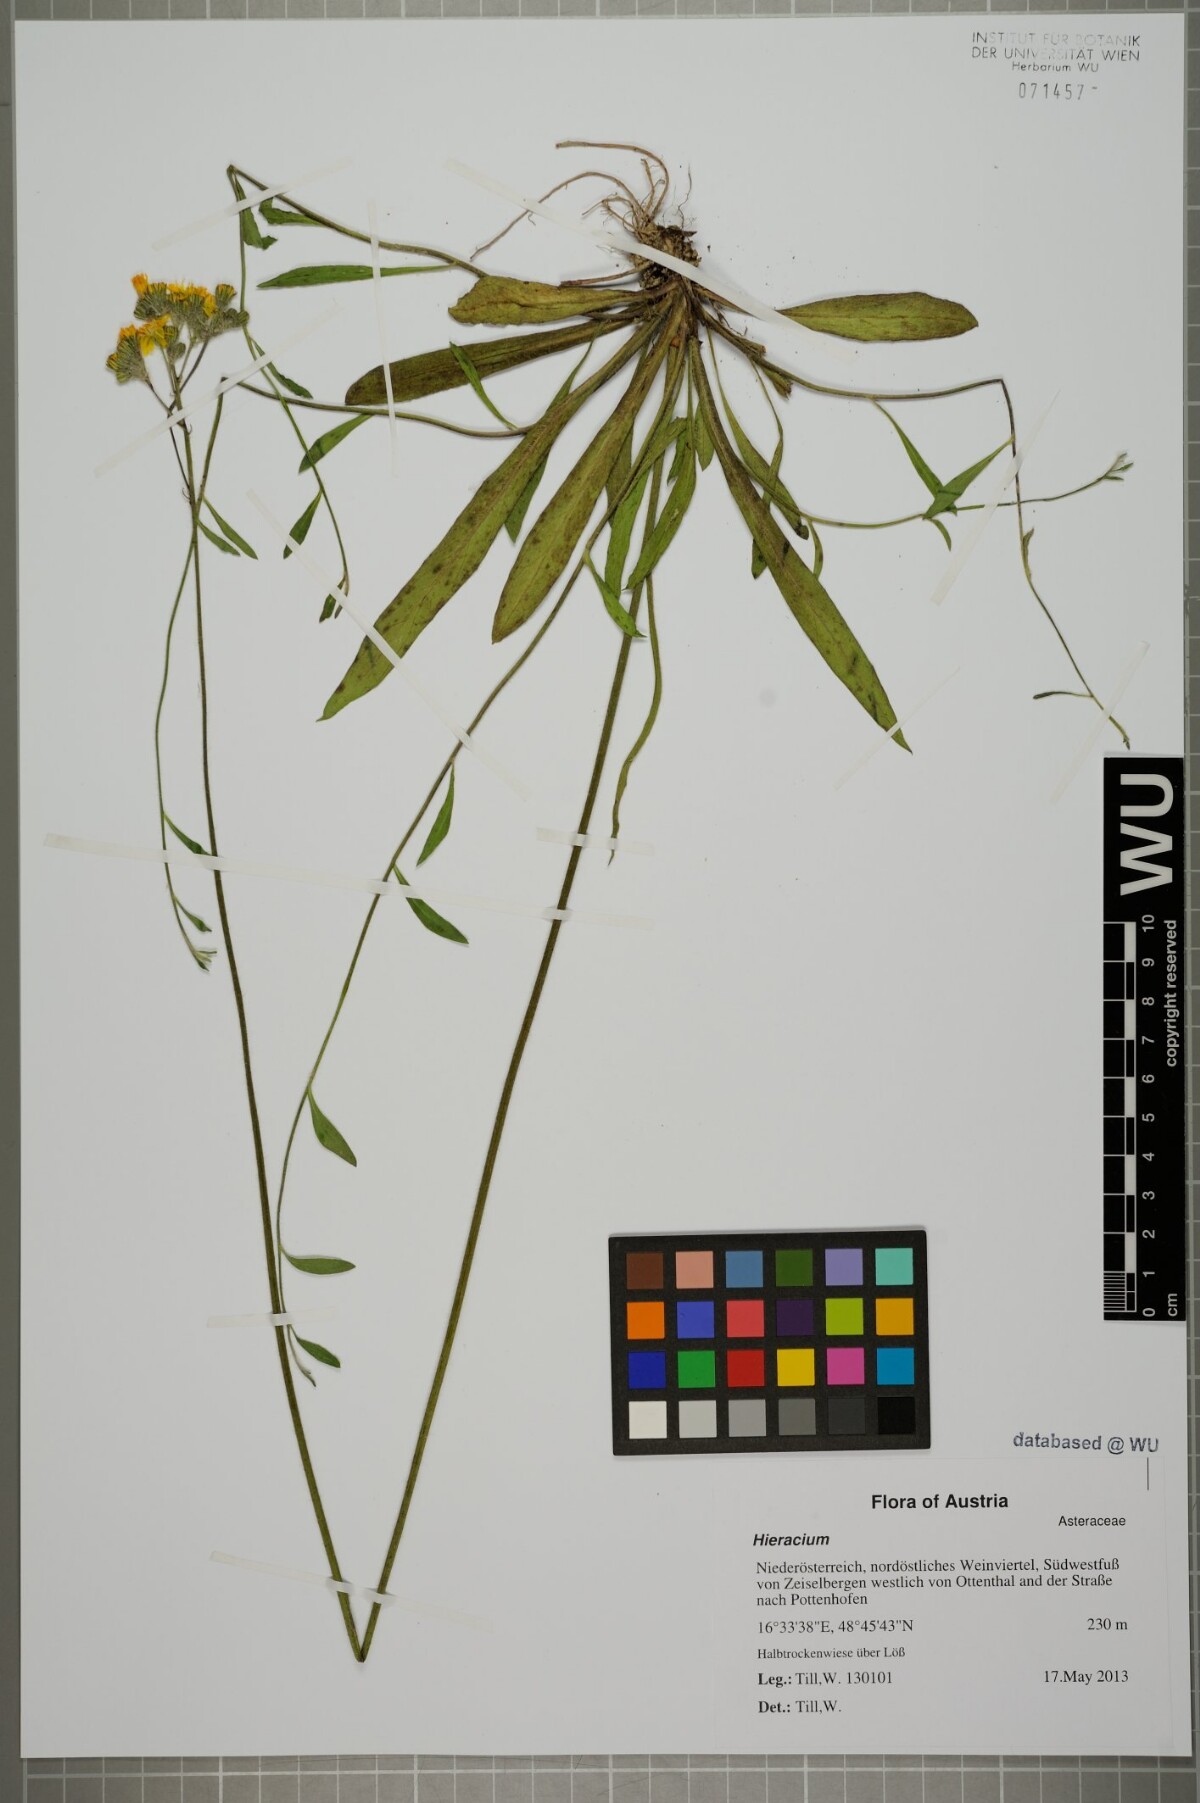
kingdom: Plantae
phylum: Tracheophyta
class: Magnoliopsida
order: Asterales
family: Asteraceae
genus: Hieracium
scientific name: Hieracium
